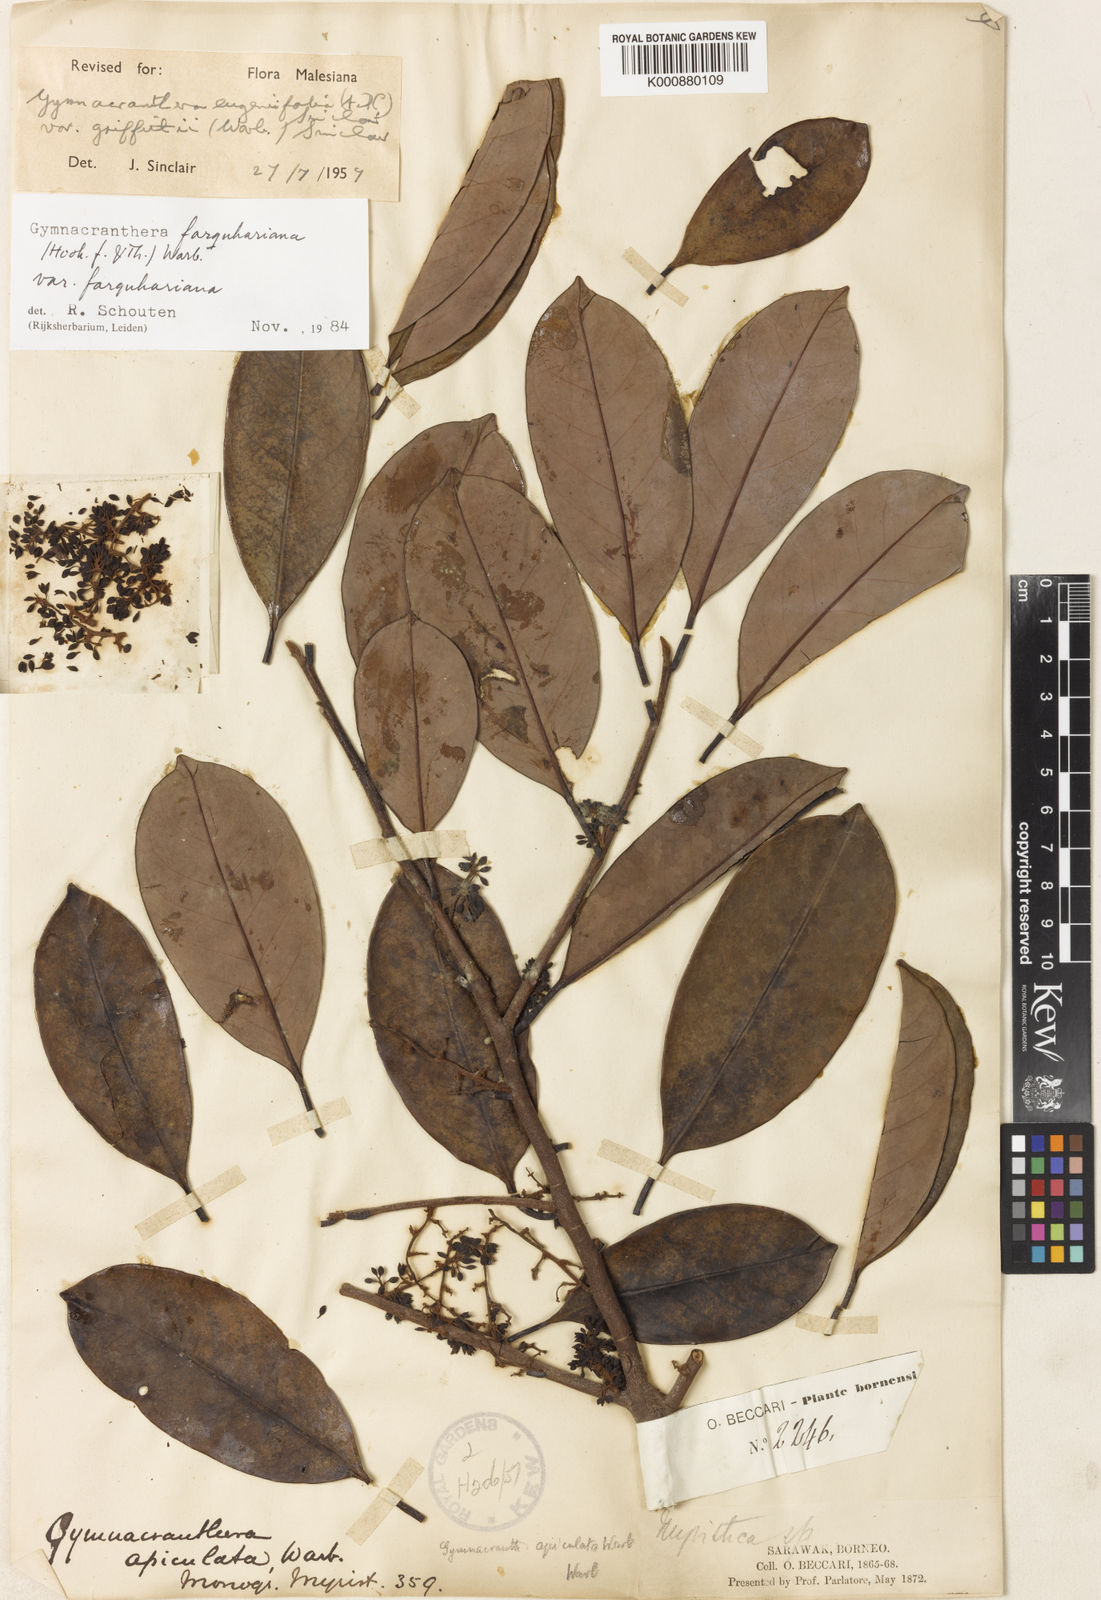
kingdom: Plantae
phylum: Tracheophyta
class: Magnoliopsida
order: Magnoliales
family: Myristicaceae
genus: Gymnacranthera
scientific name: Gymnacranthera farquhariana
